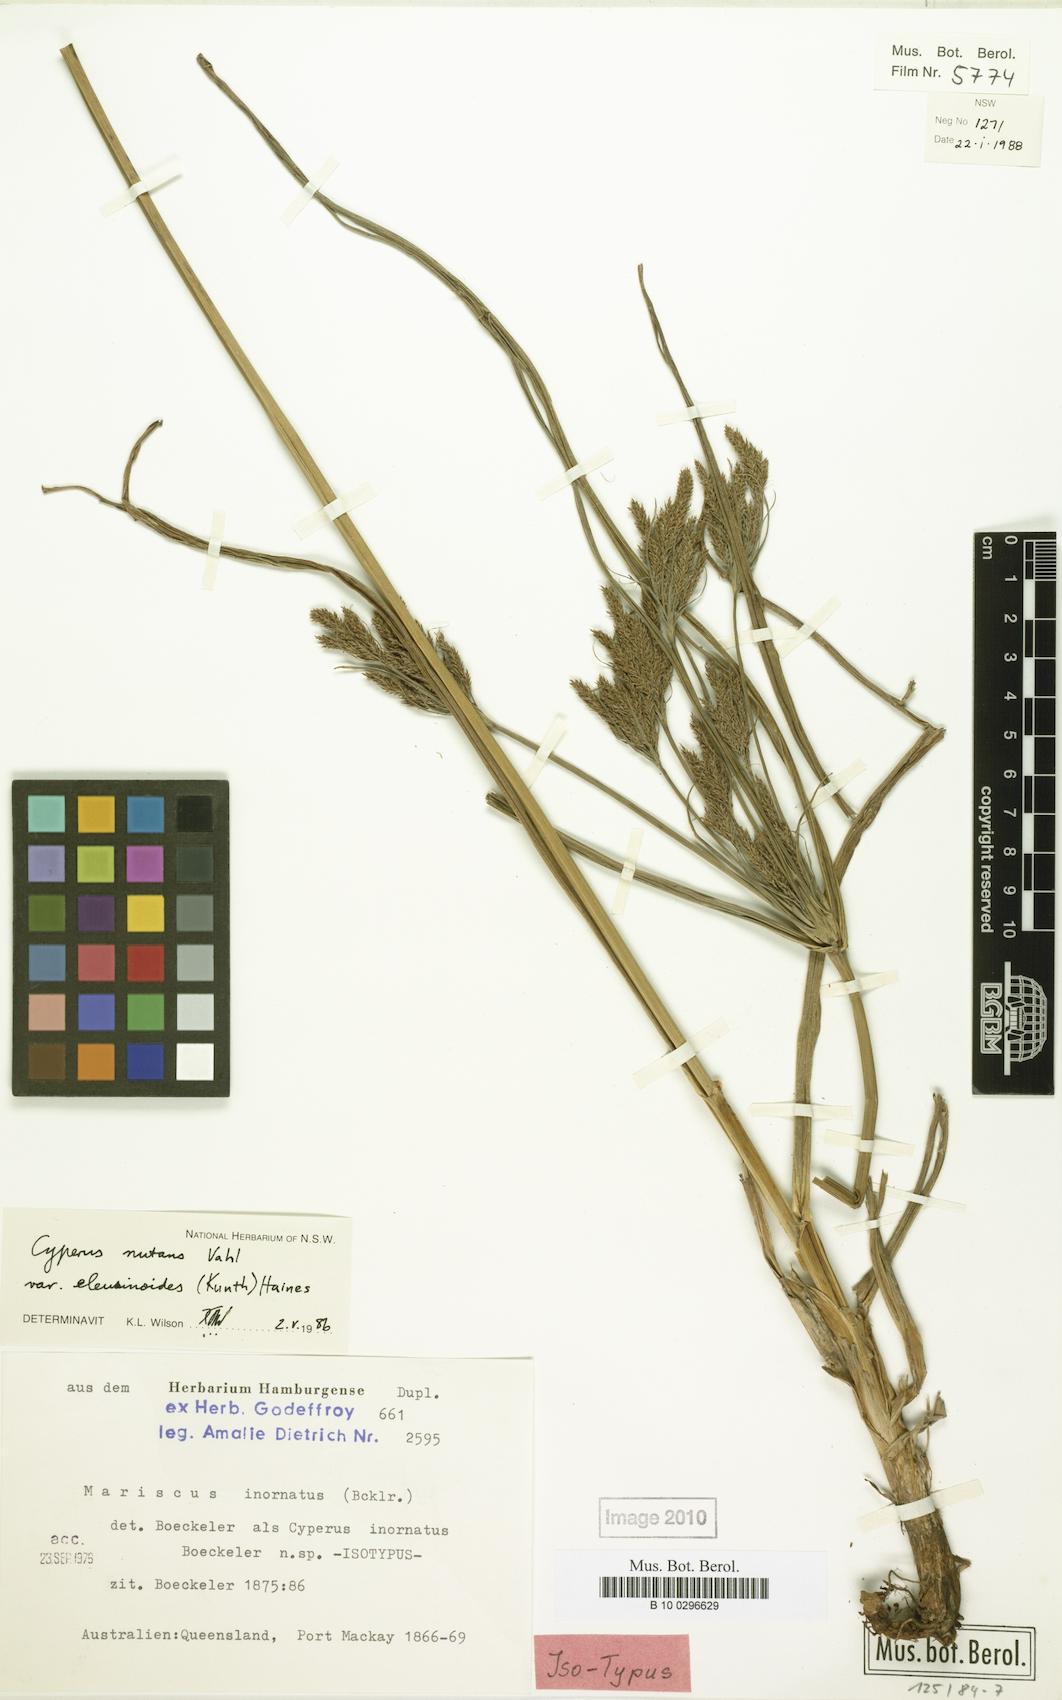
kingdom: Plantae
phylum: Tracheophyta
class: Liliopsida
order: Poales
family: Cyperaceae
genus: Cyperus
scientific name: Cyperus nutans
